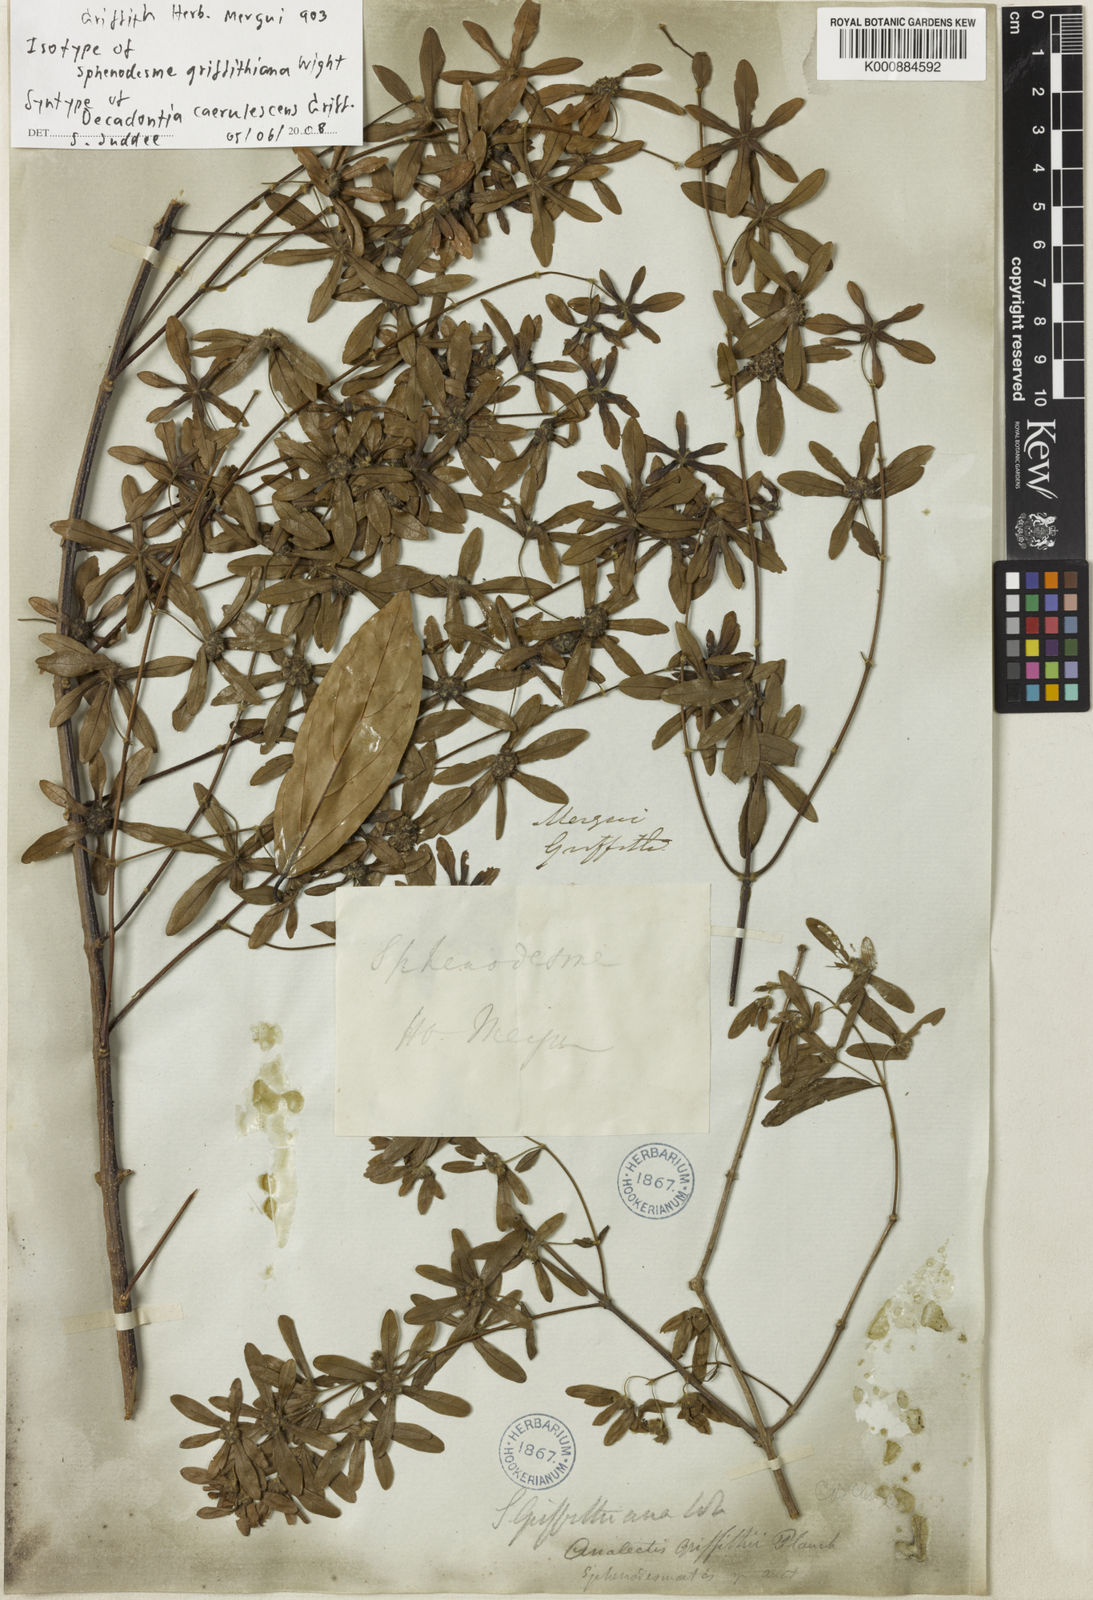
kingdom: Plantae
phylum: Tracheophyta
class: Magnoliopsida
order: Lamiales
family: Lamiaceae
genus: Sphenodesme
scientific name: Sphenodesme griffithiana
